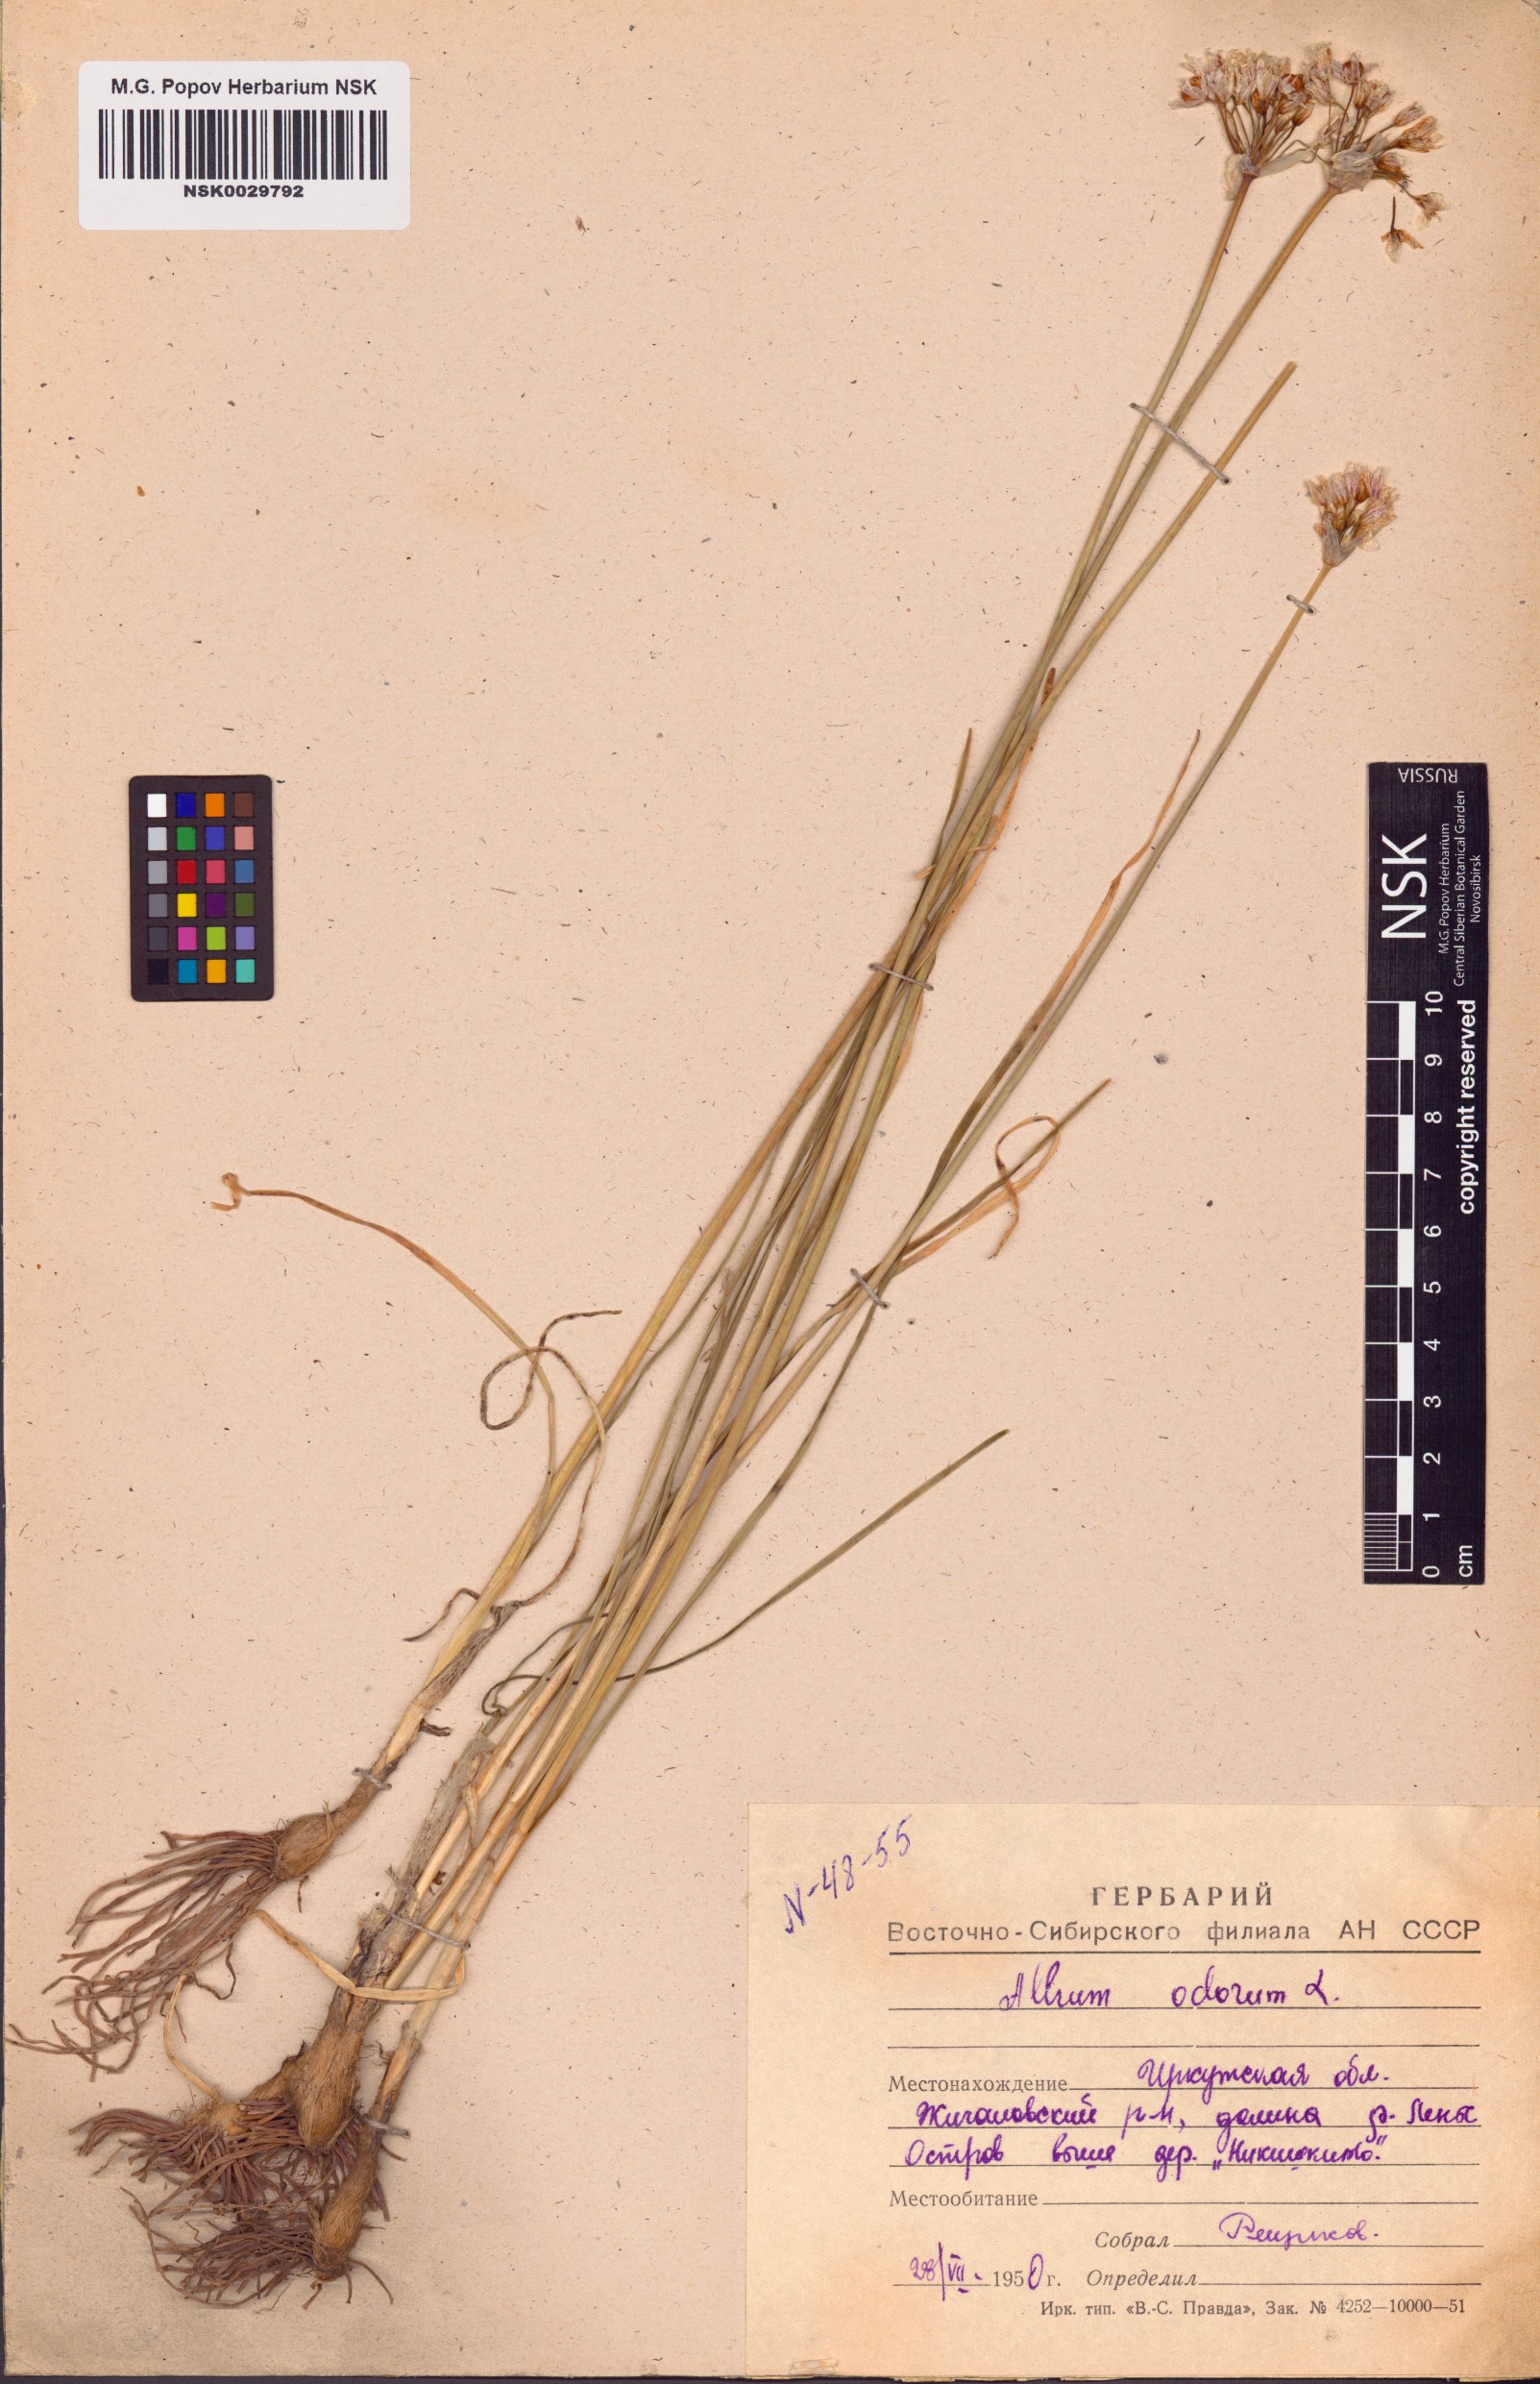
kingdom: Plantae
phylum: Tracheophyta
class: Liliopsida
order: Asparagales
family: Amaryllidaceae
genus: Allium
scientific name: Allium ramosum
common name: Fragrant garlic
